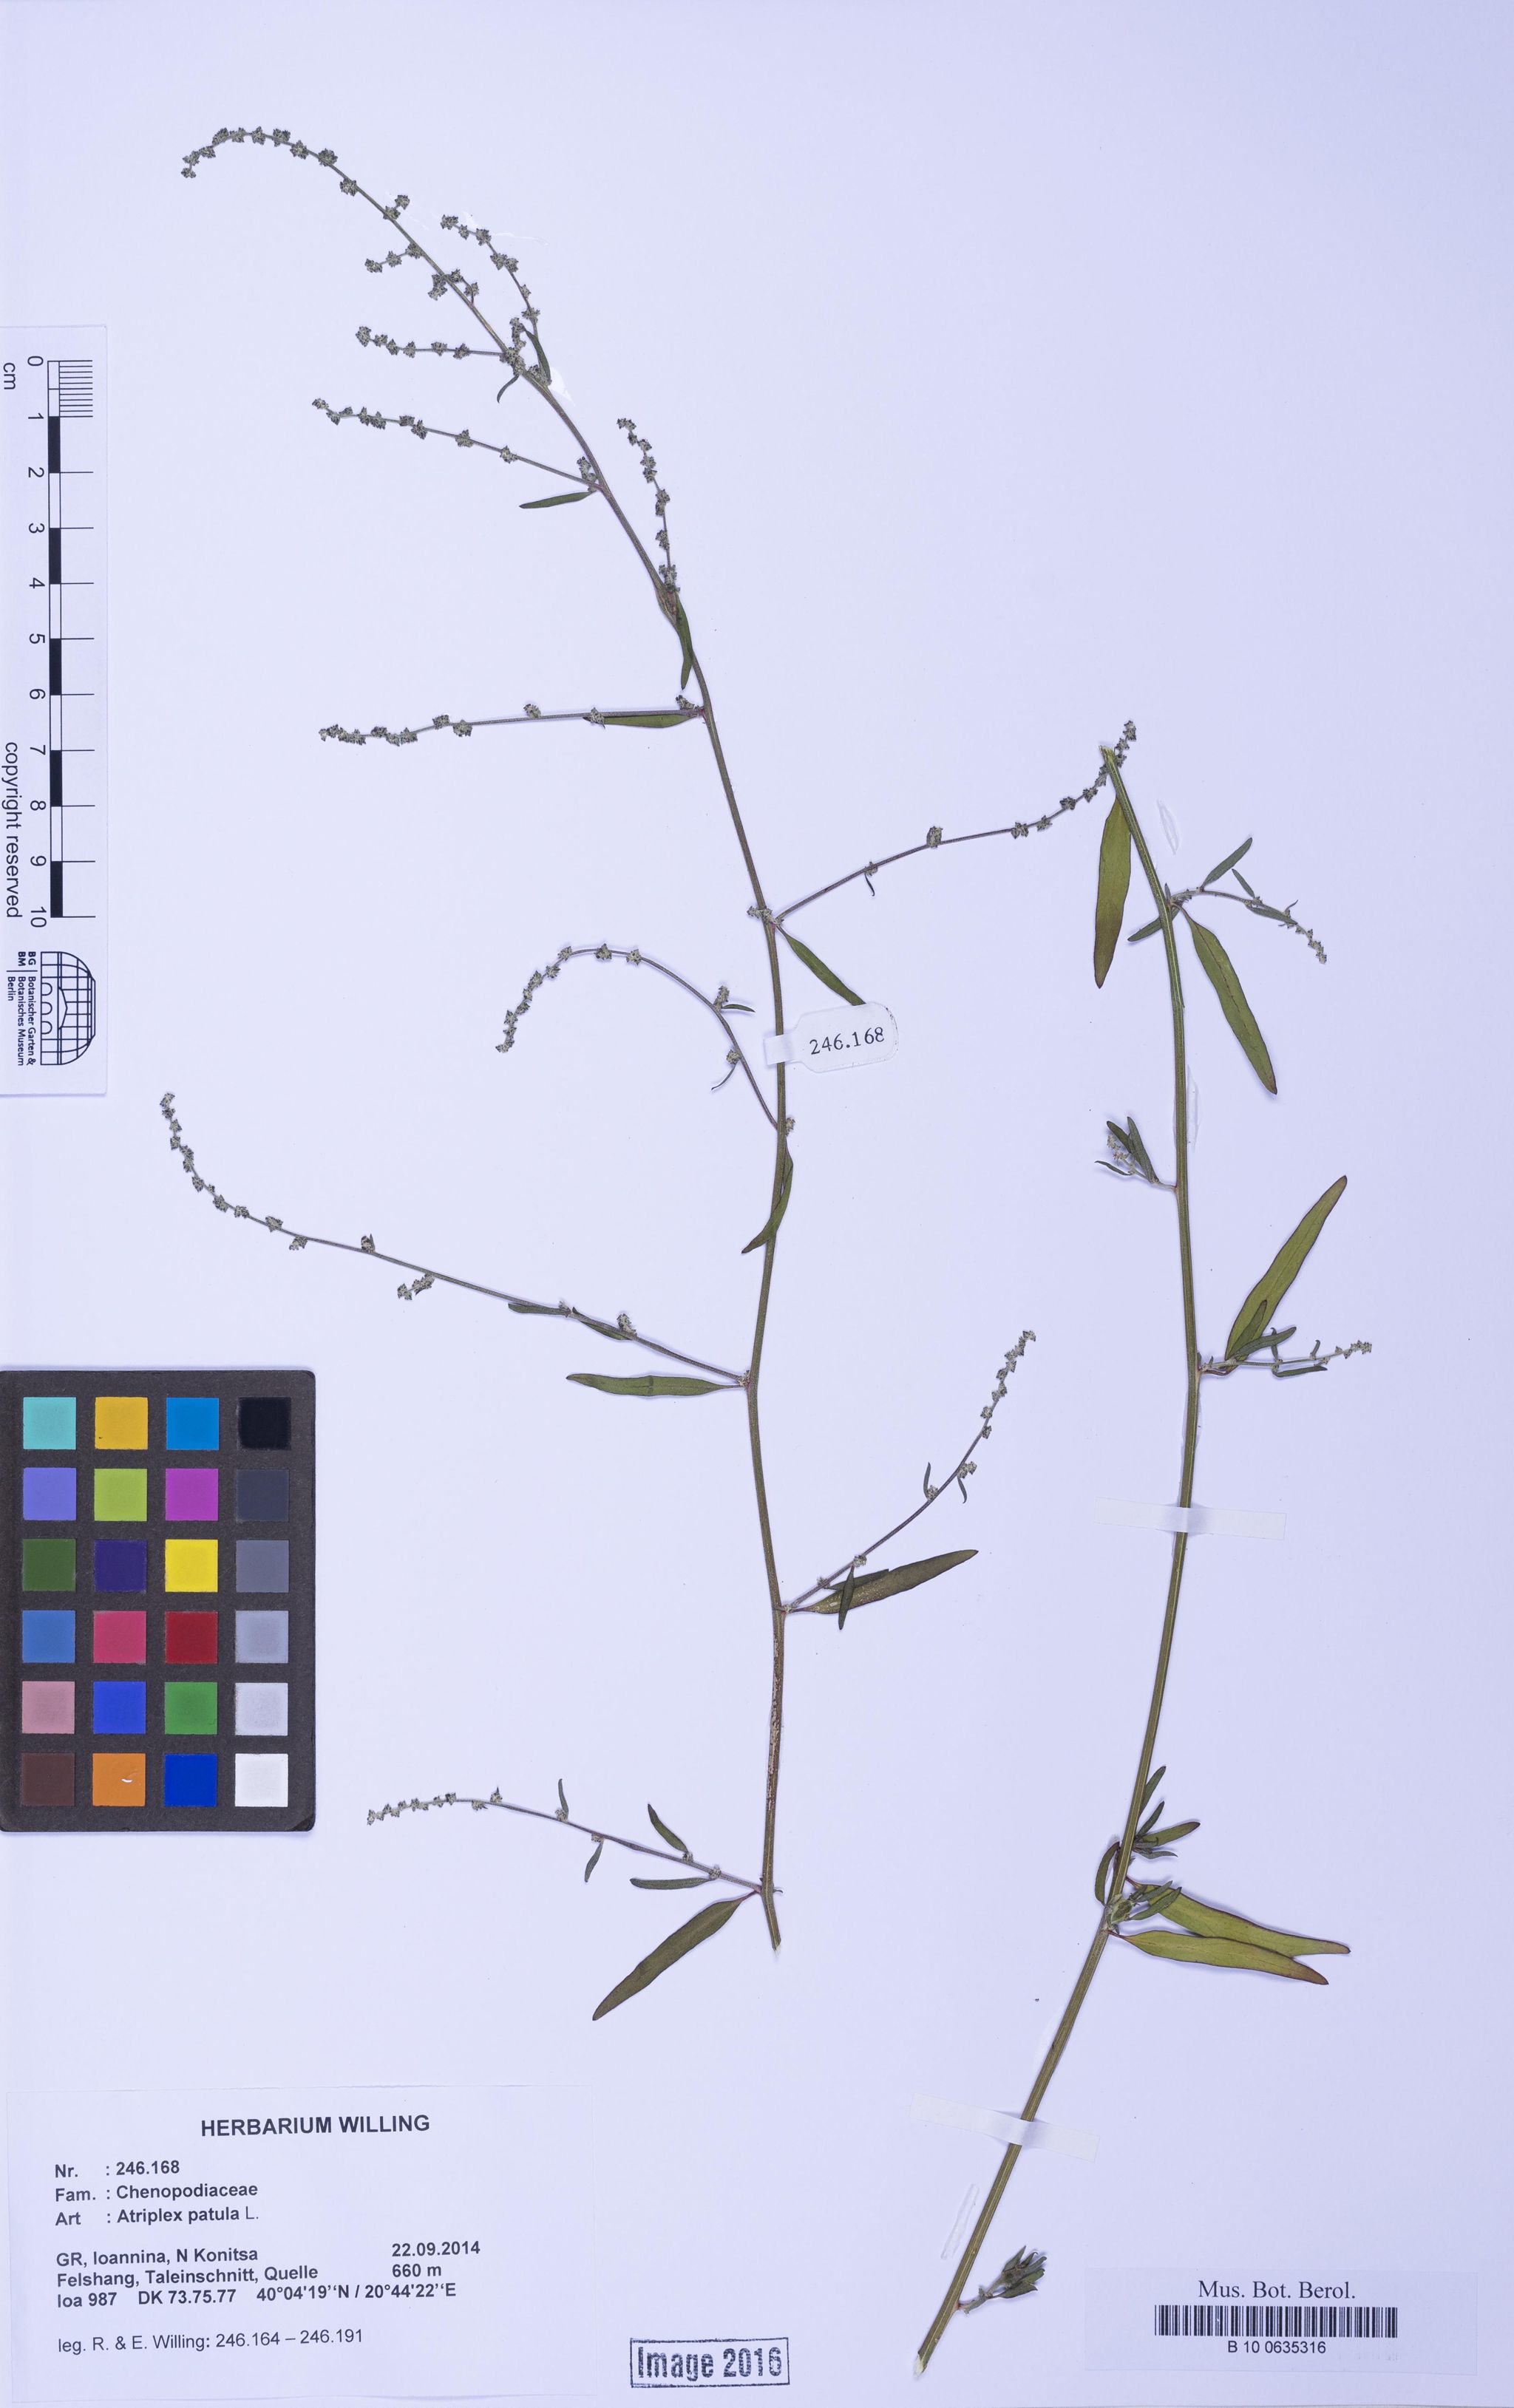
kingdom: Plantae
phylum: Tracheophyta
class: Magnoliopsida
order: Caryophyllales
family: Amaranthaceae
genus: Atriplex
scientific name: Atriplex patula
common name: Common orache
